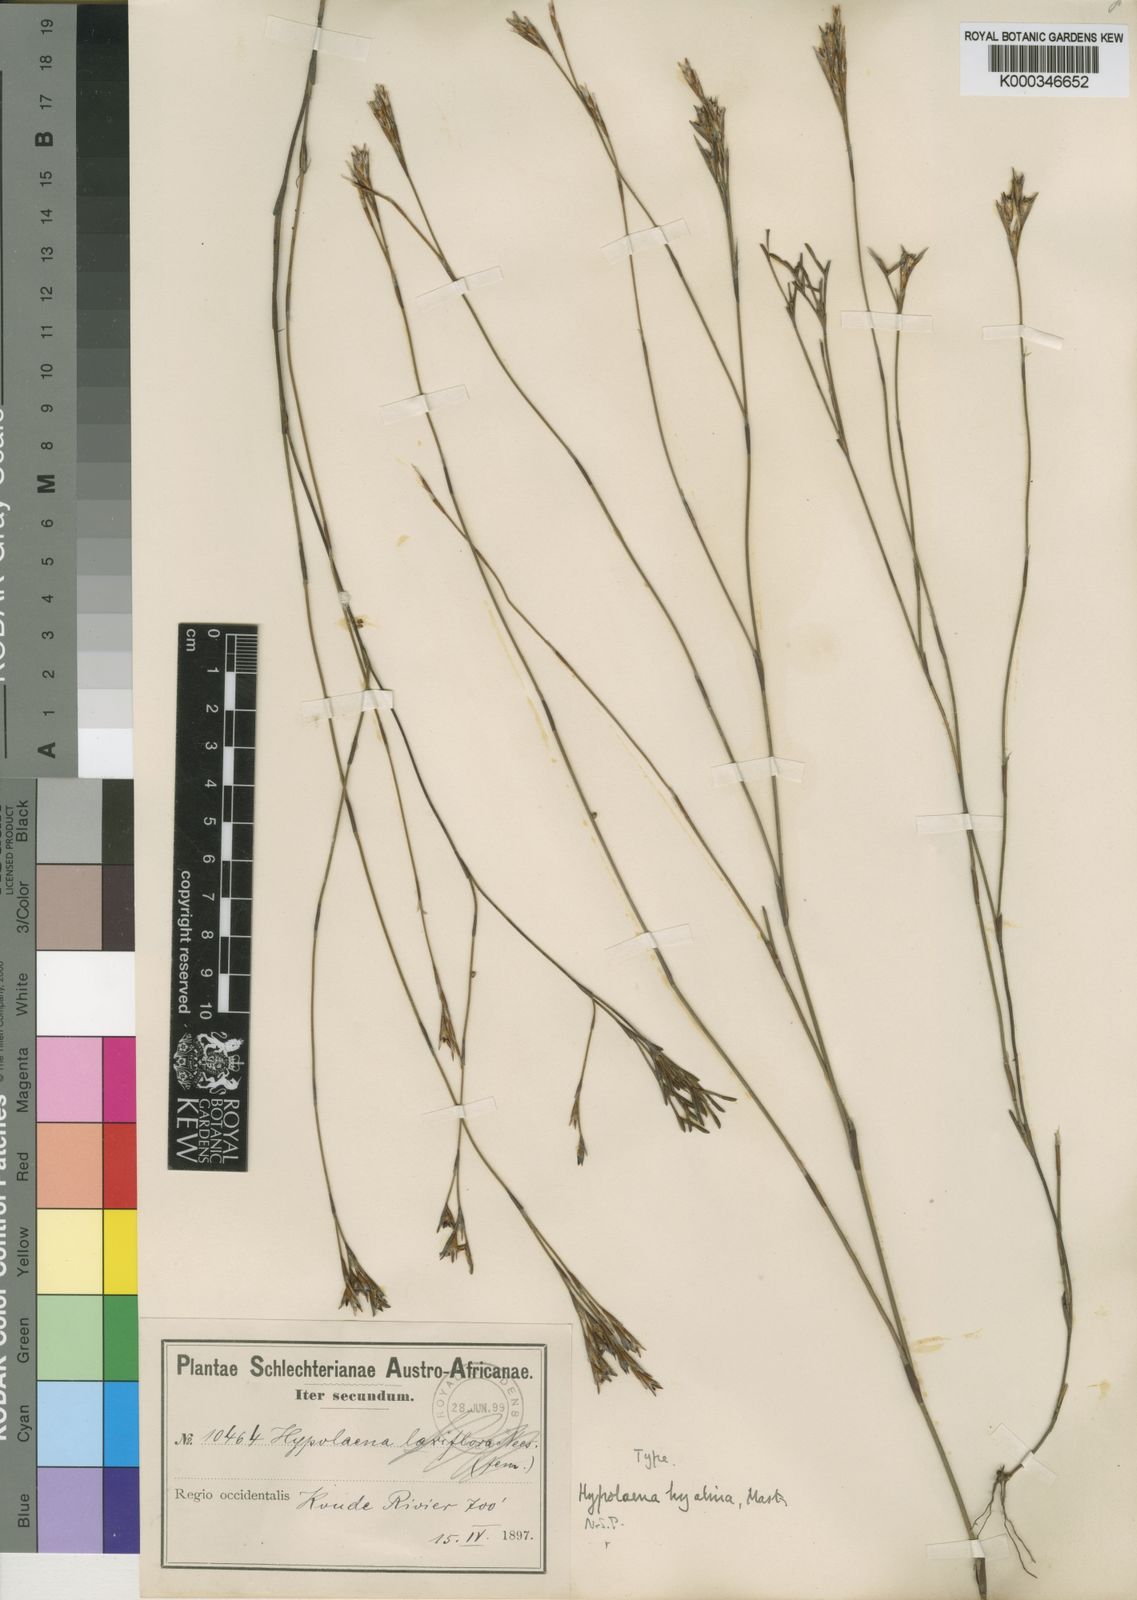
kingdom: Plantae
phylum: Tracheophyta
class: Liliopsida
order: Poales
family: Restionaceae
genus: Restio
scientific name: Restio hyalinus
